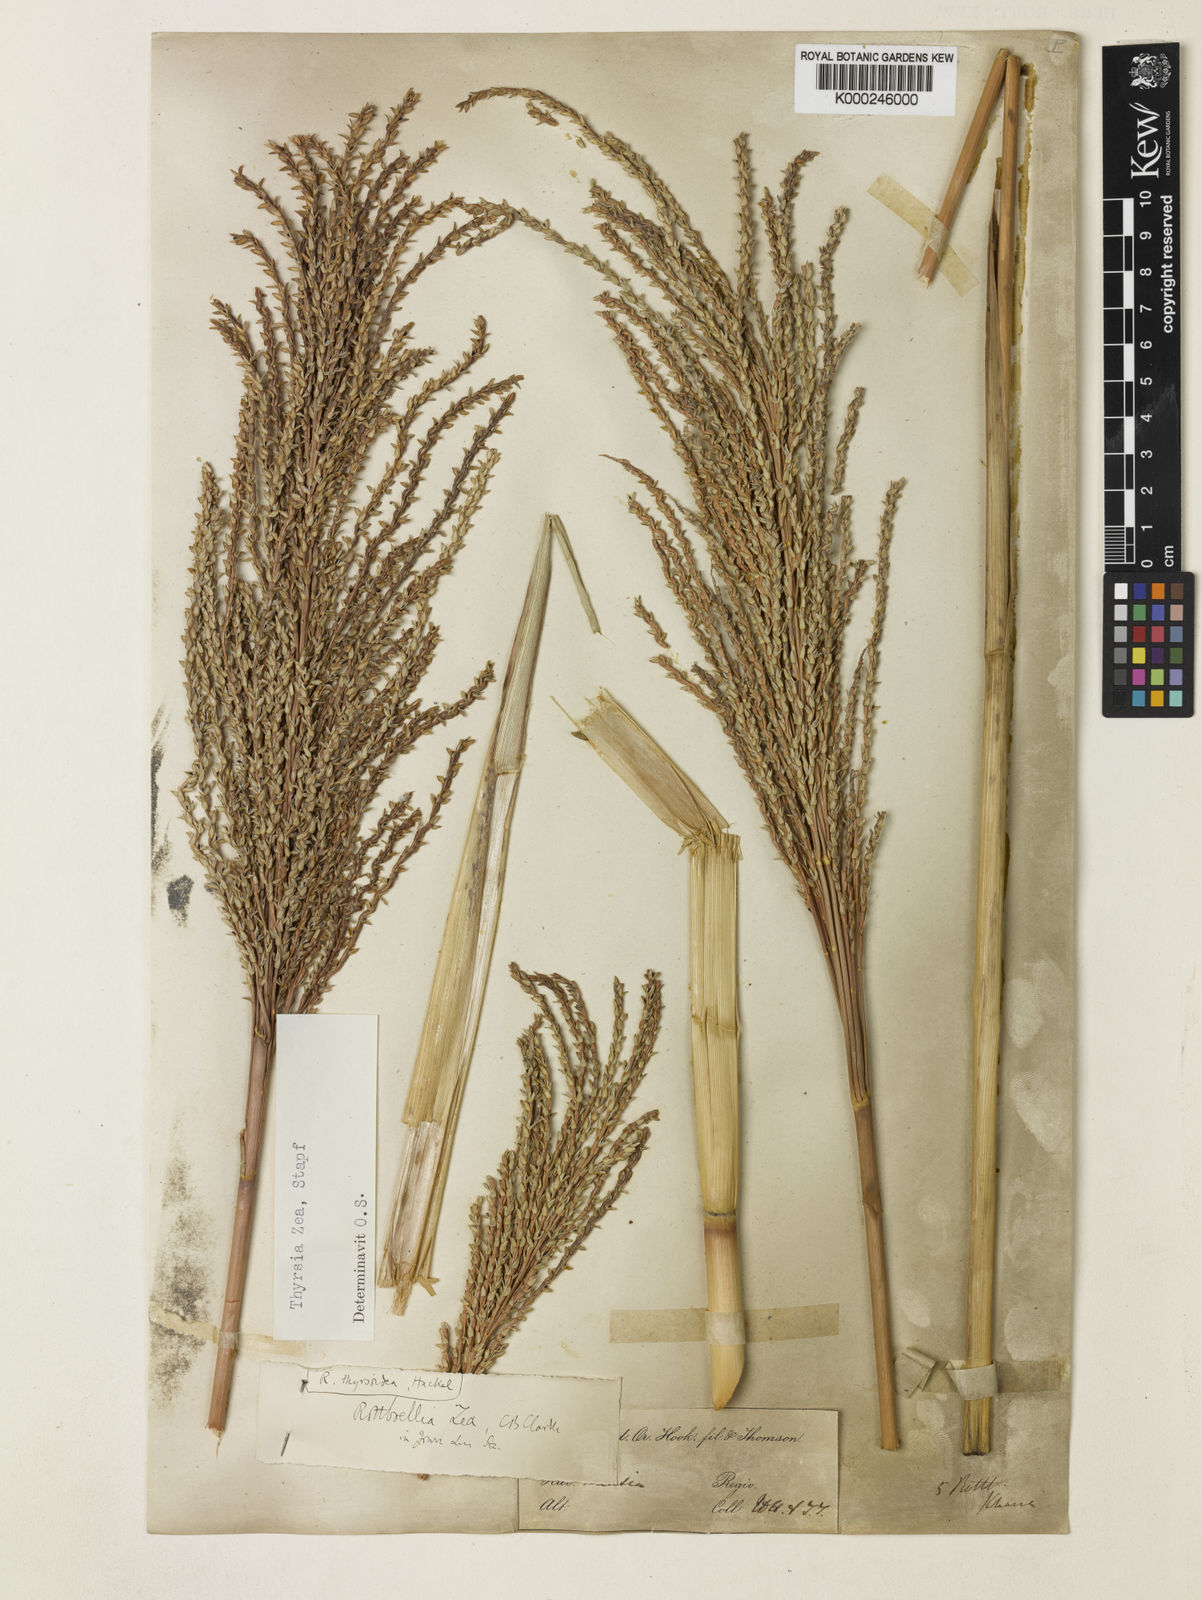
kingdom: Plantae
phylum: Tracheophyta
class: Liliopsida
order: Poales
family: Poaceae
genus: Thyrsia
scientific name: Thyrsia zea
